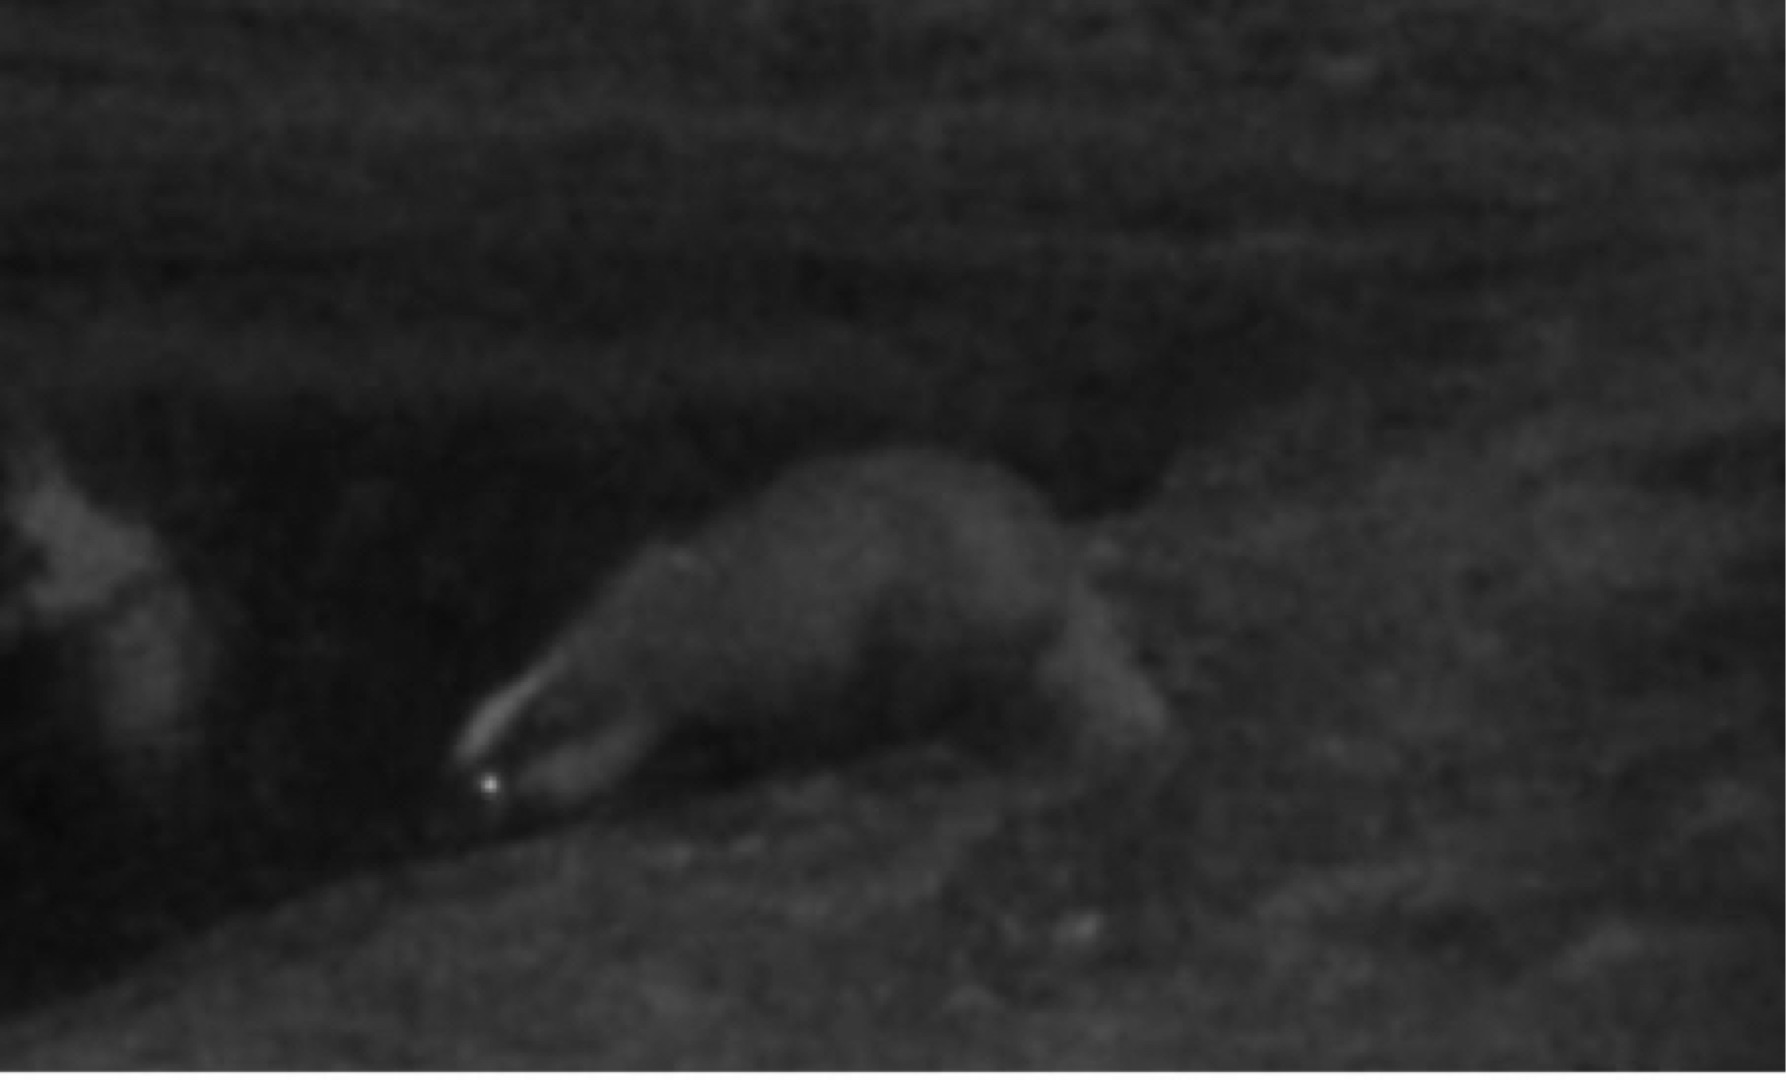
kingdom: Animalia
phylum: Chordata
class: Mammalia
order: Carnivora
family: Mustelidae
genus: Meles
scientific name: Meles meles
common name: Grævling
